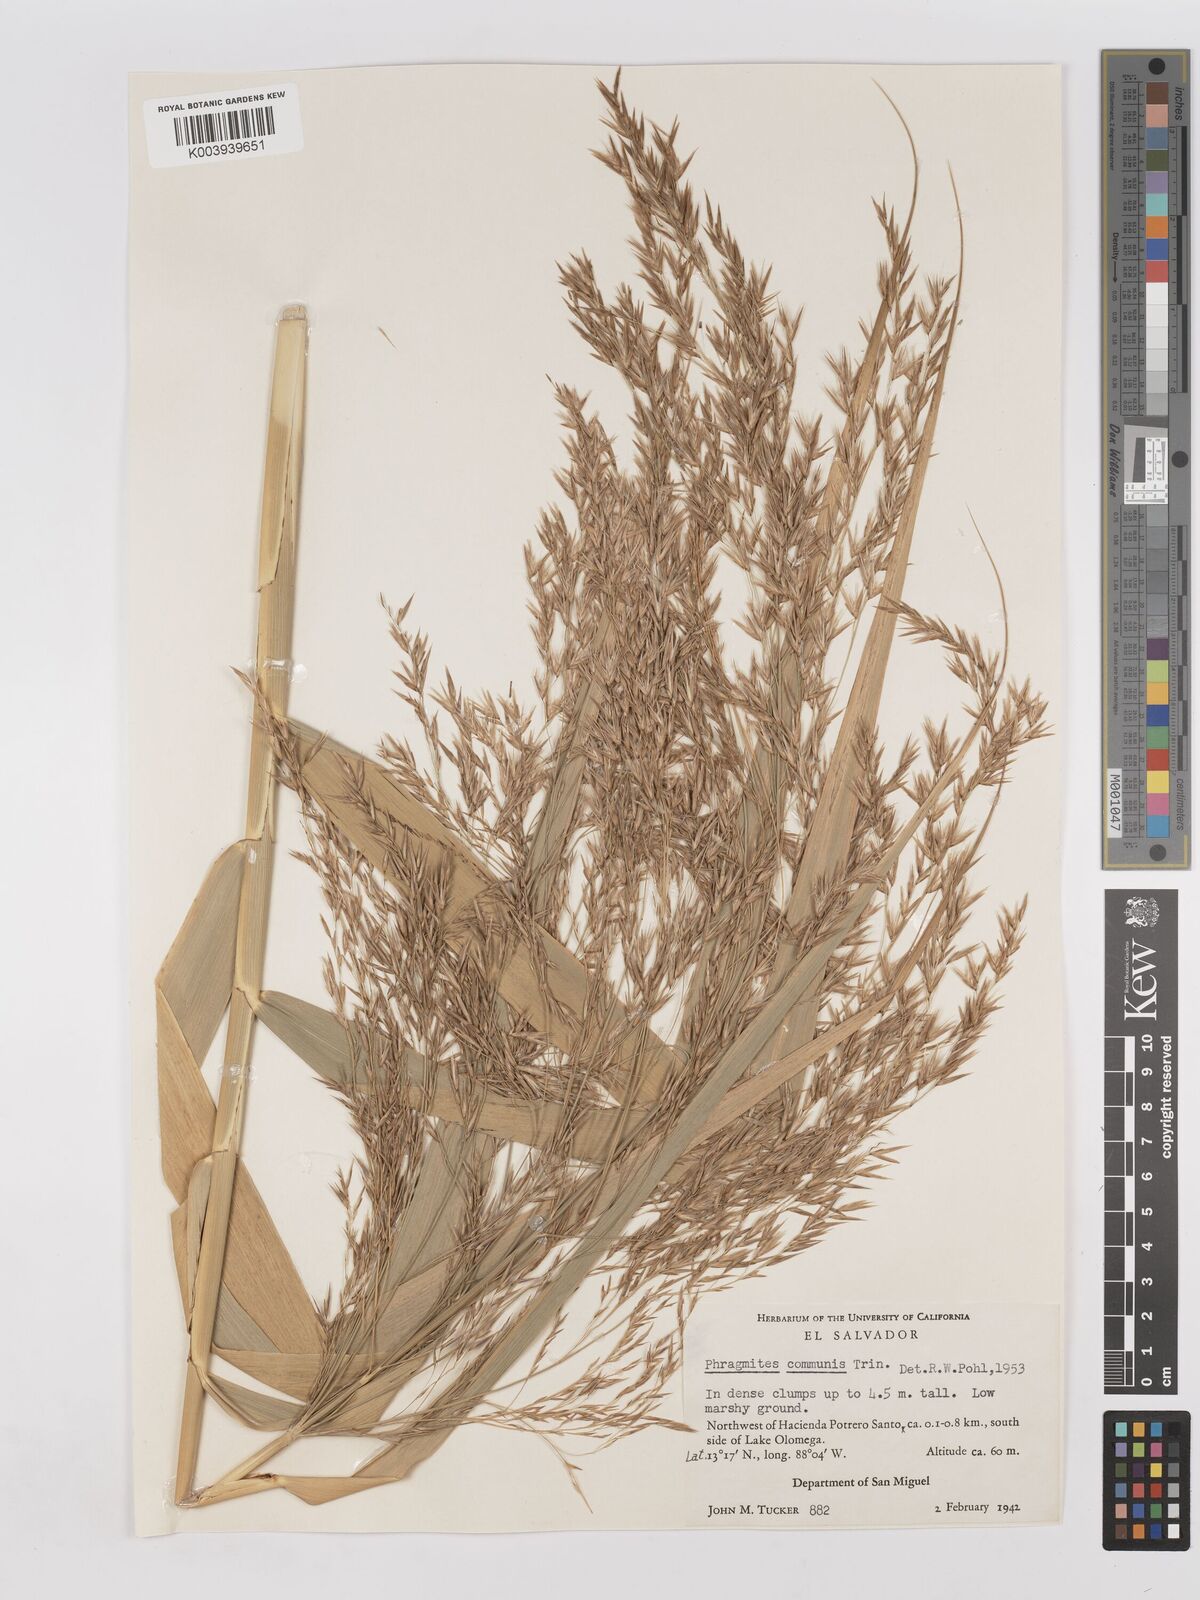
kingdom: Plantae
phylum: Tracheophyta
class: Liliopsida
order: Poales
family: Poaceae
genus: Phragmites
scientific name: Phragmites australis
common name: Common reed
